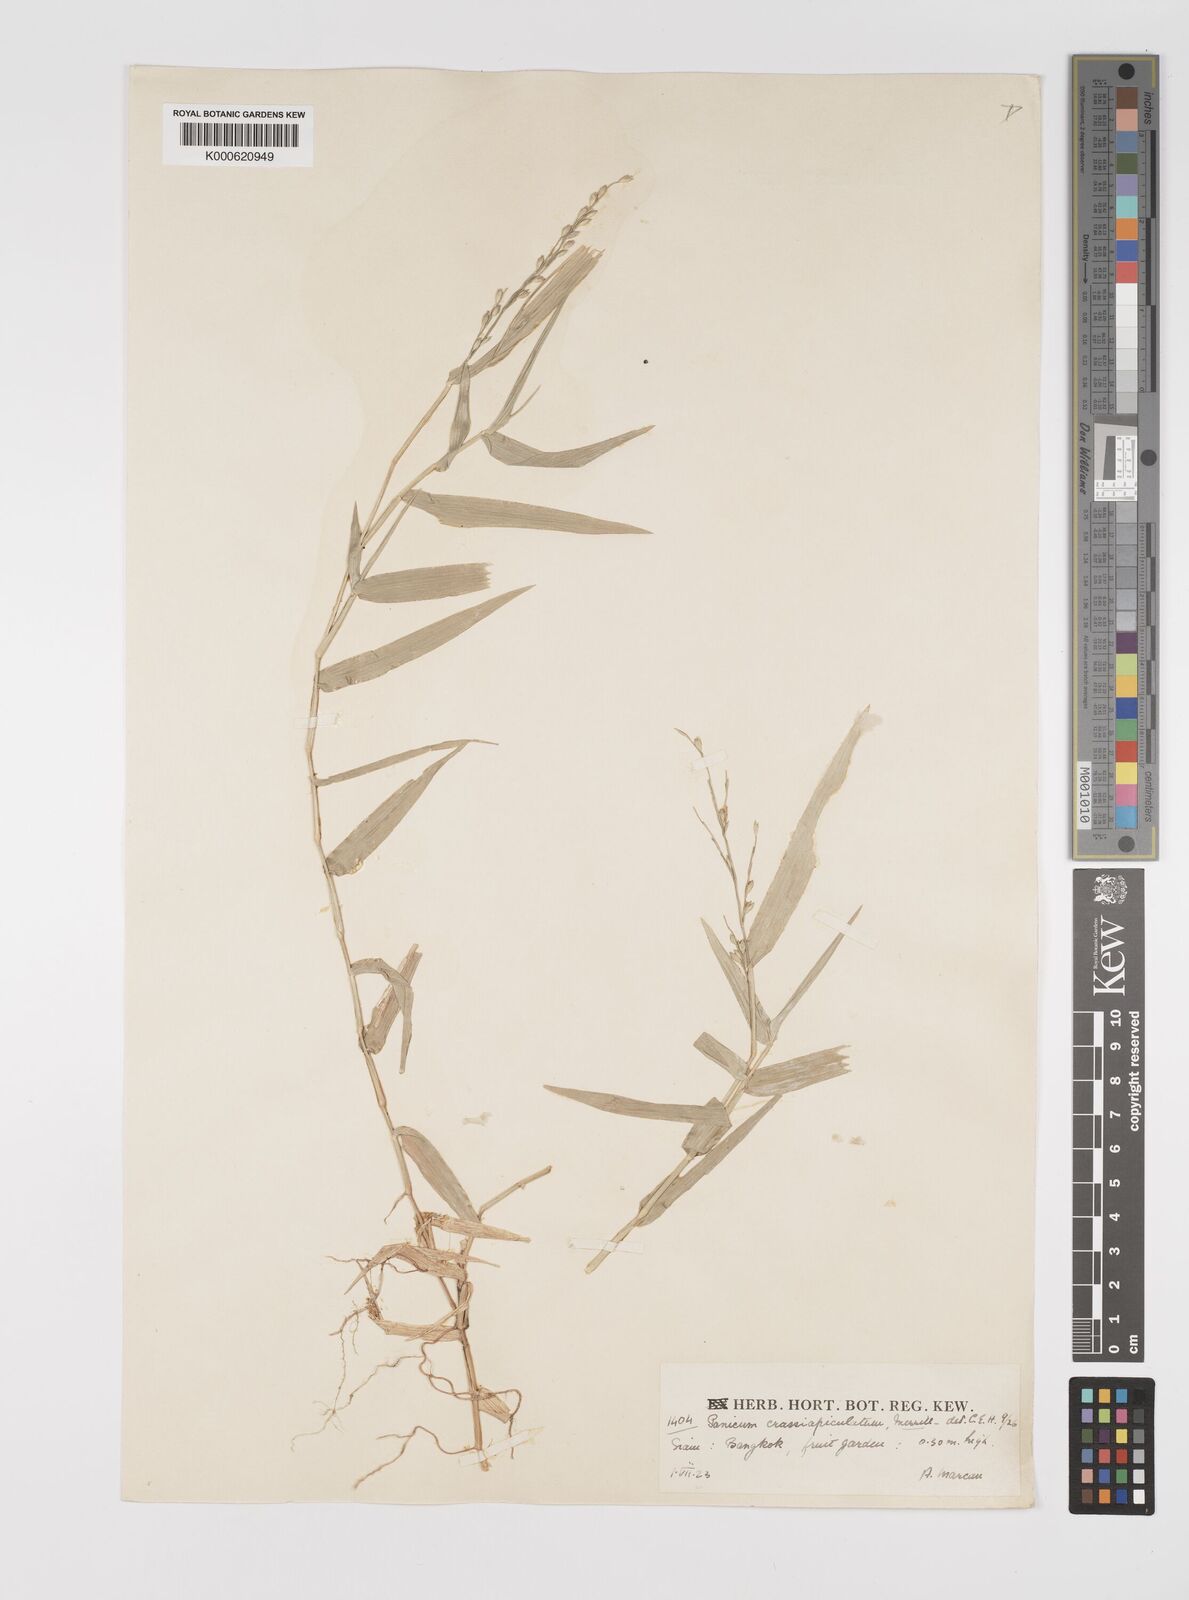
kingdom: Plantae
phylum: Tracheophyta
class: Liliopsida
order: Poales
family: Poaceae
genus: Acroceras
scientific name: Acroceras munroanum
